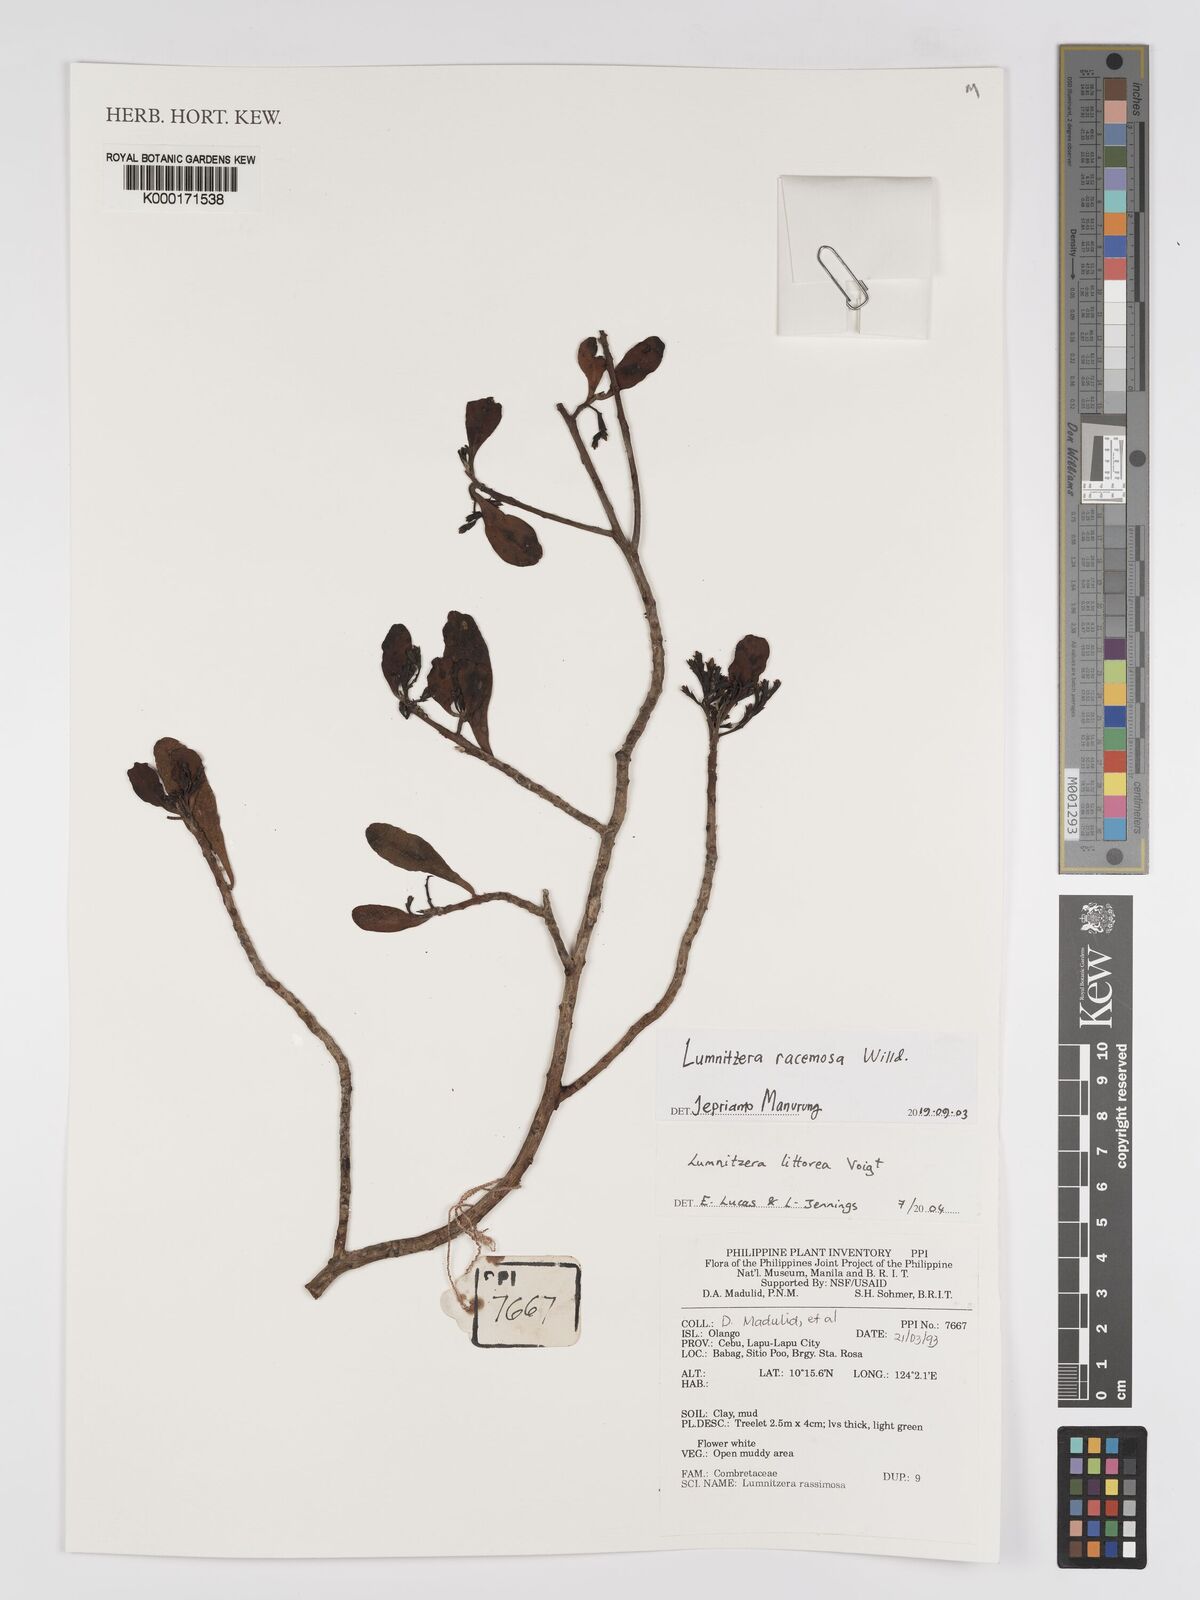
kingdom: Plantae
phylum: Tracheophyta
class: Magnoliopsida
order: Myrtales
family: Combretaceae
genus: Lumnitzera
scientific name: Lumnitzera littorea
